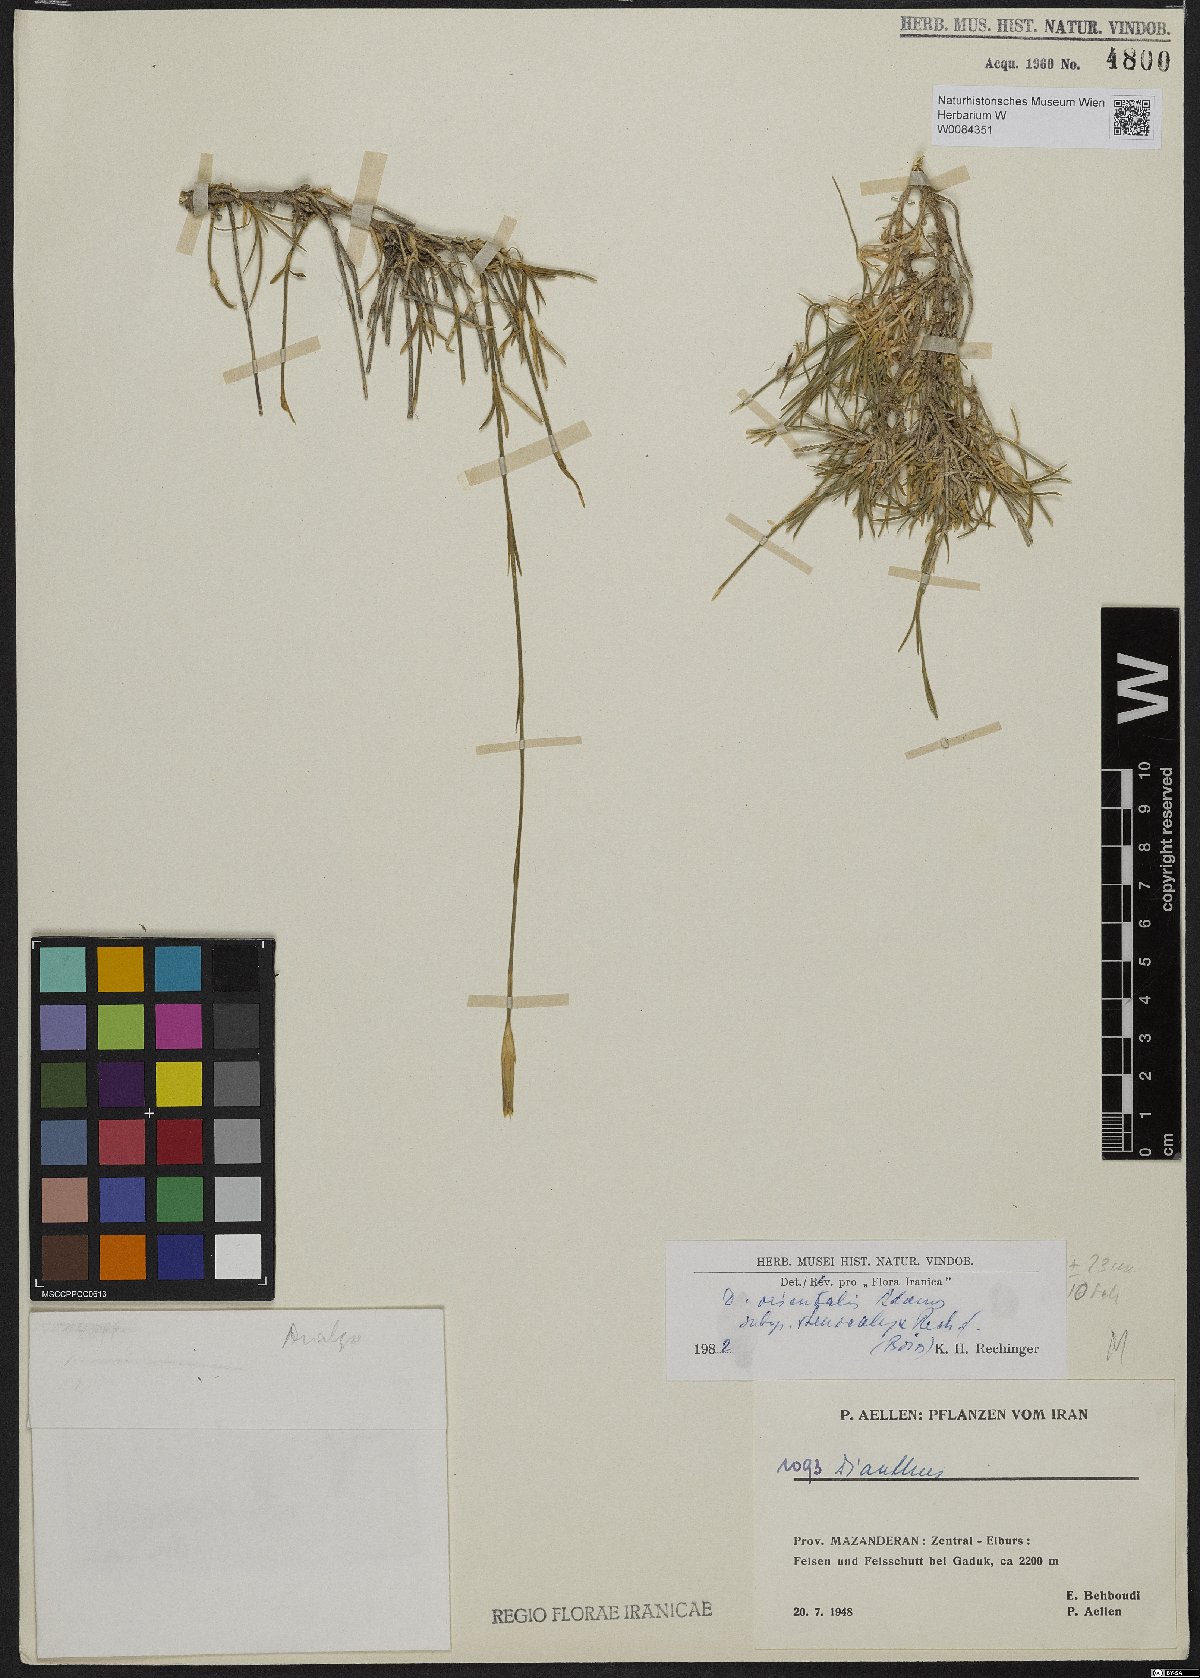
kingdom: Plantae
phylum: Tracheophyta
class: Magnoliopsida
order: Caryophyllales
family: Caryophyllaceae
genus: Dianthus
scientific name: Dianthus orientalis
